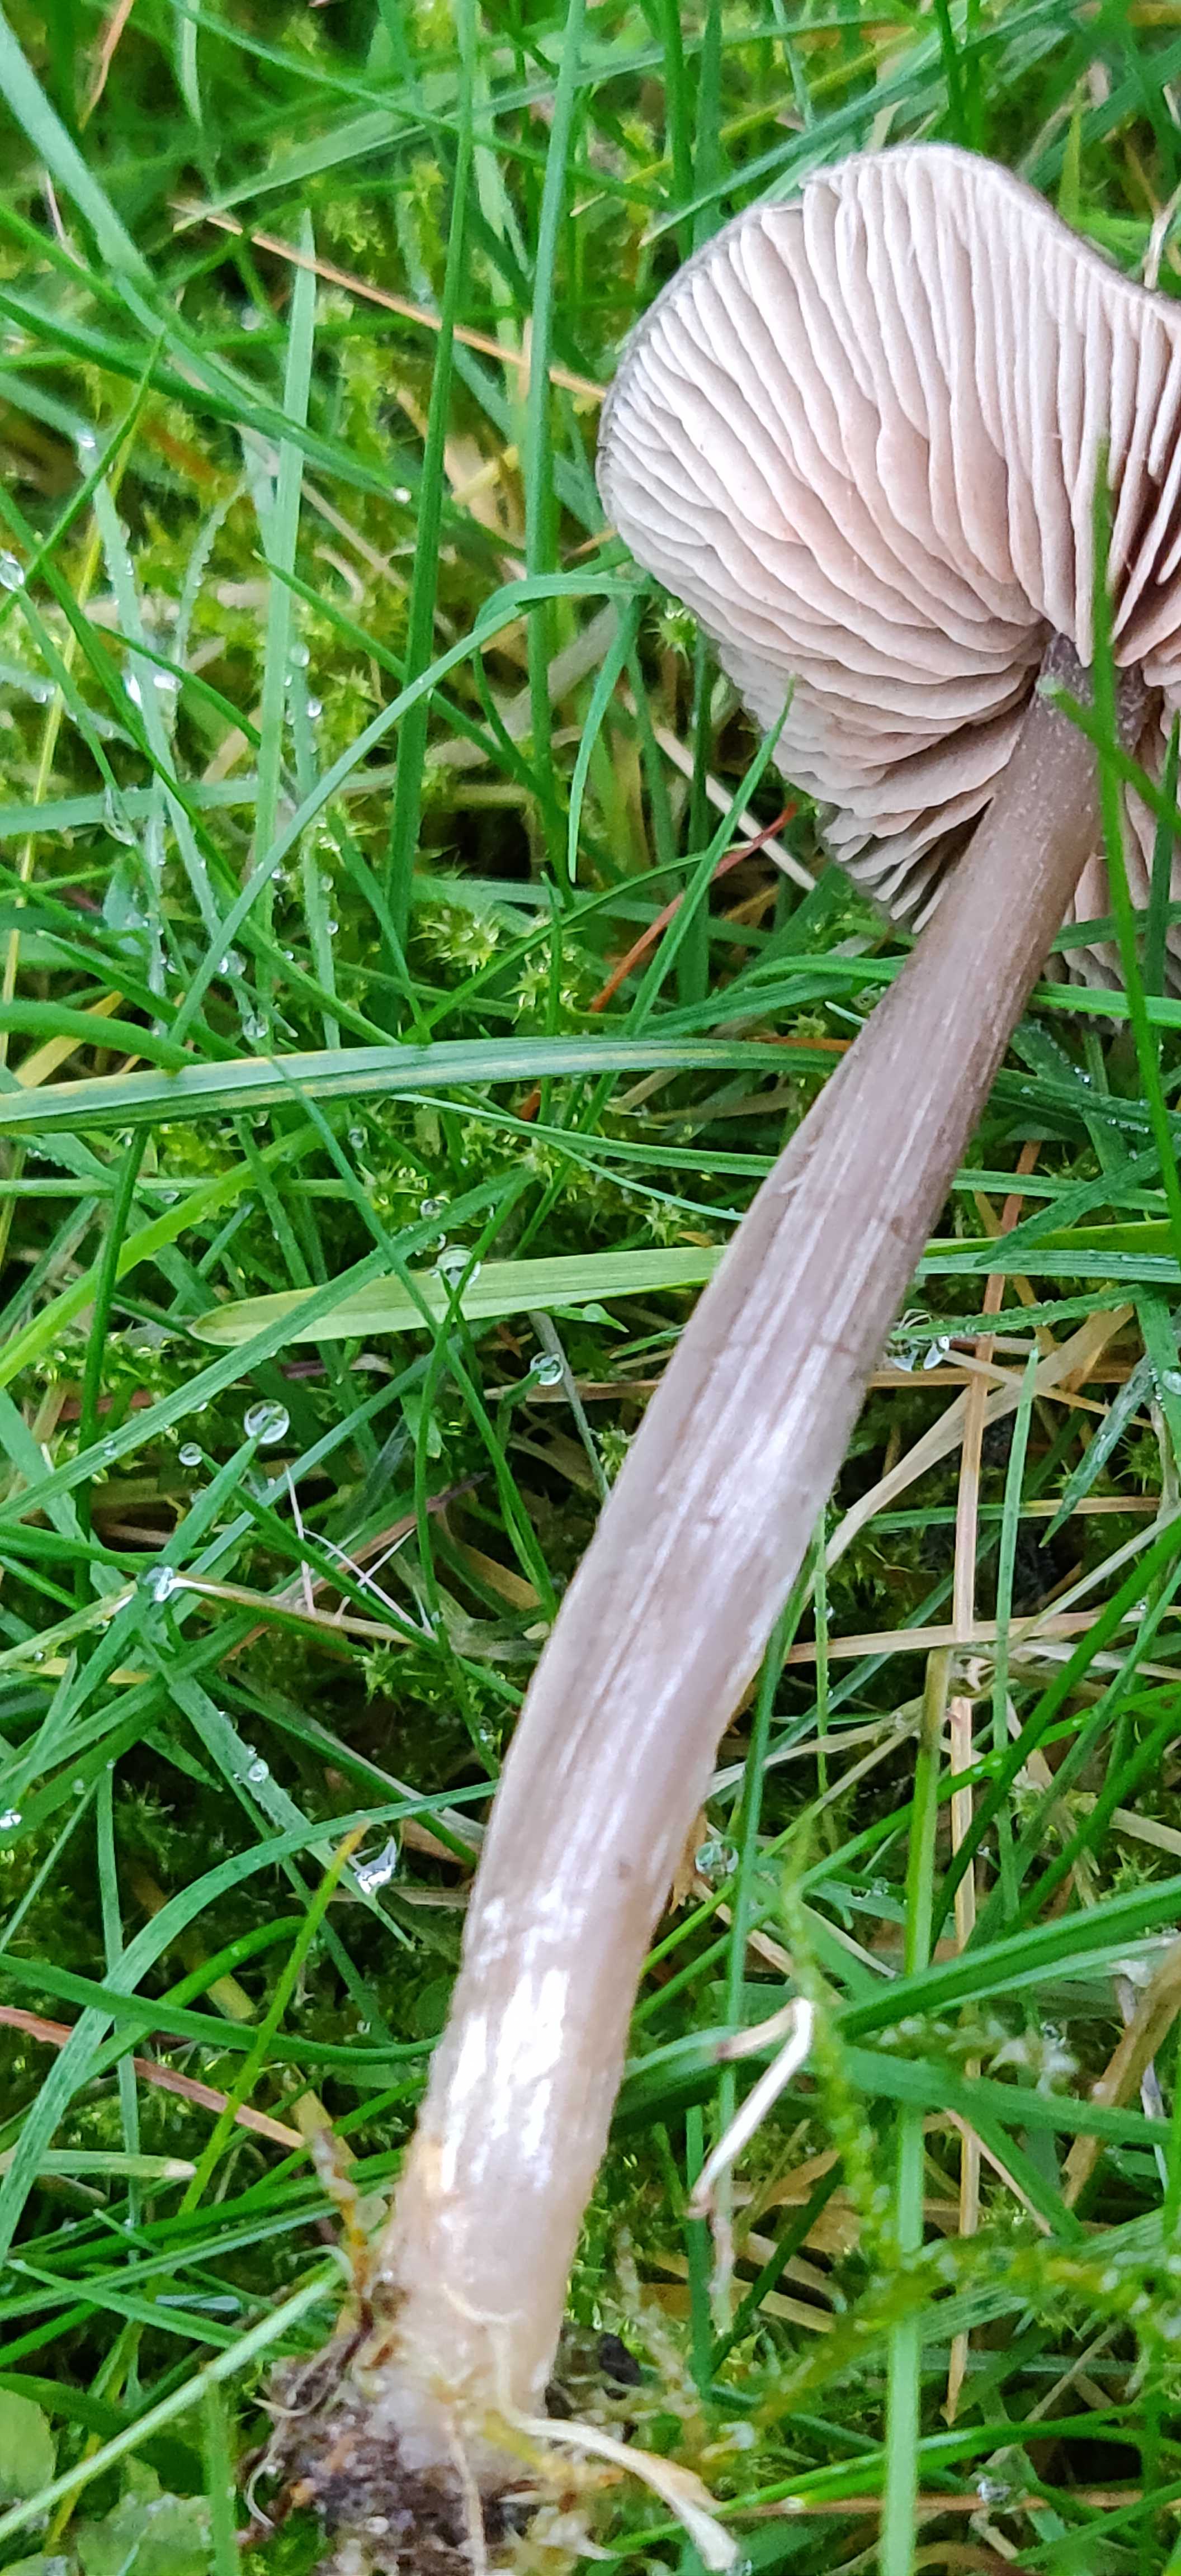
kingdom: Fungi
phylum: Basidiomycota
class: Agaricomycetes
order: Agaricales
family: Entolomataceae
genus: Entoloma
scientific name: Entoloma sericeum
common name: silkeglinsende rødblad
